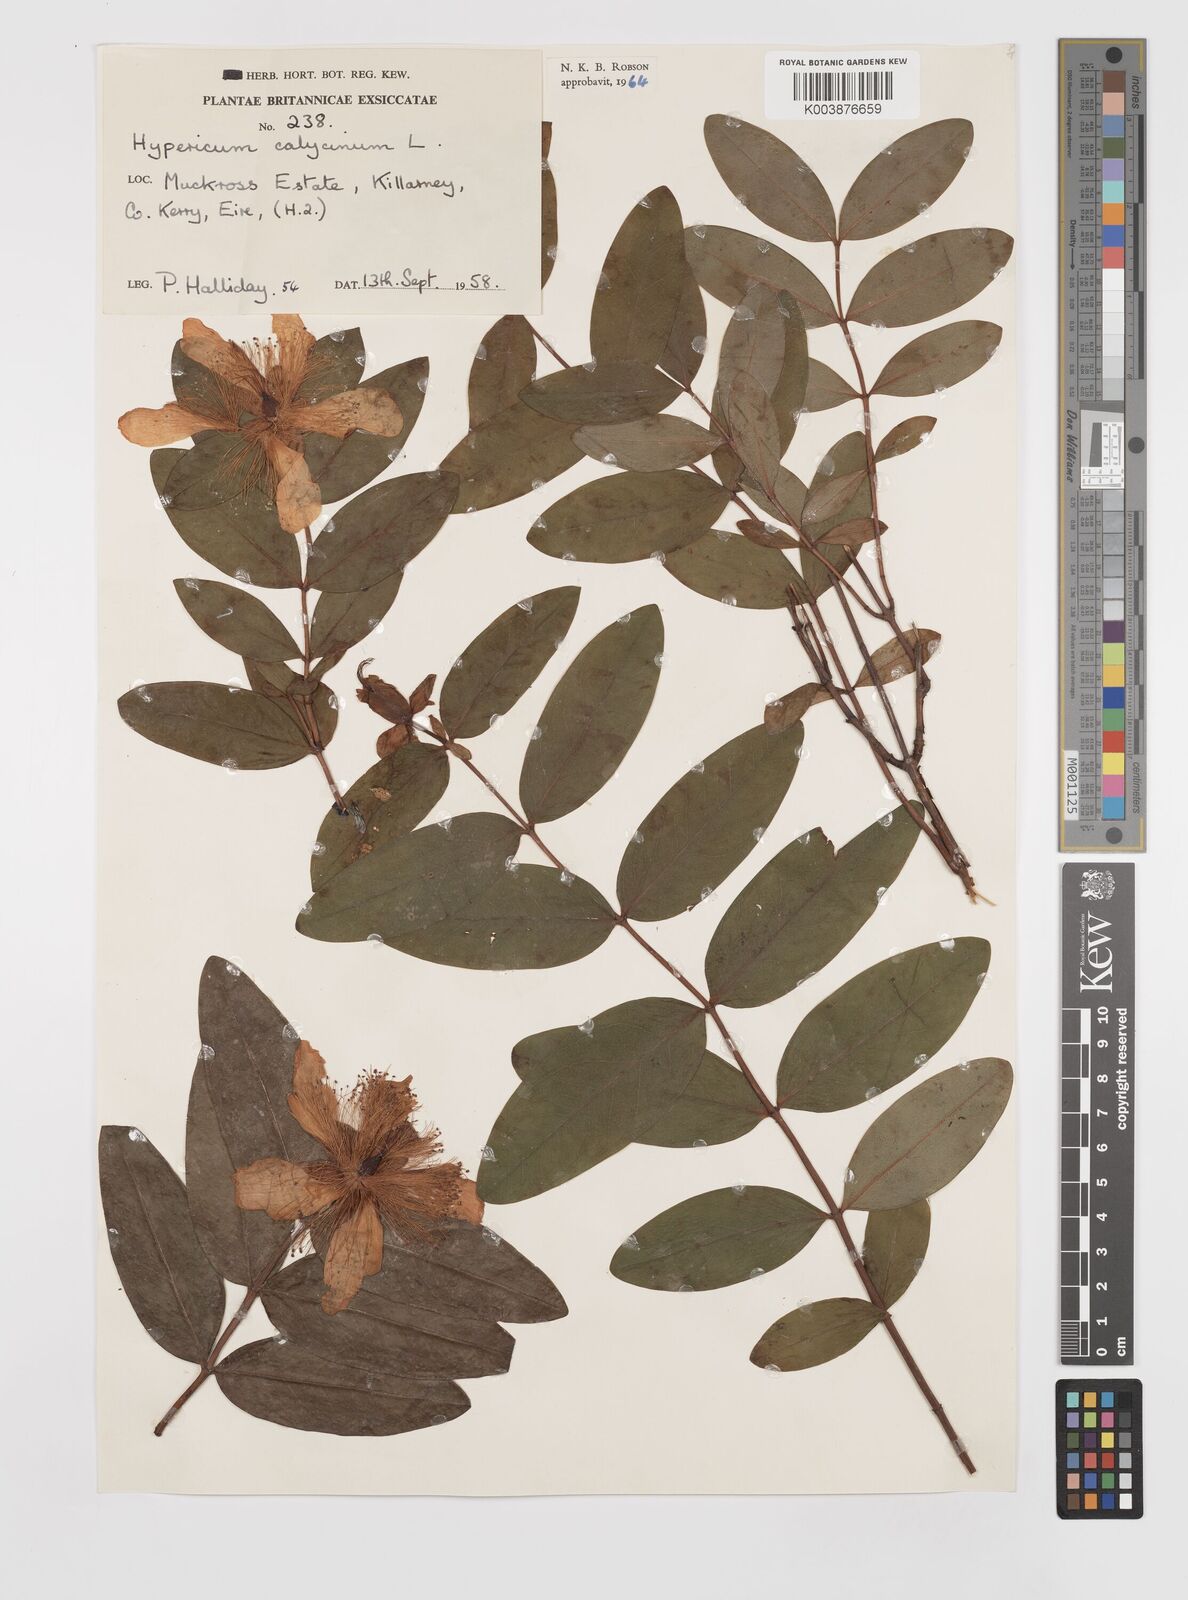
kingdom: Plantae
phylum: Tracheophyta
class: Magnoliopsida
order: Malpighiales
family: Hypericaceae
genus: Hypericum
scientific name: Hypericum calycinum
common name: Rose-of-sharon
